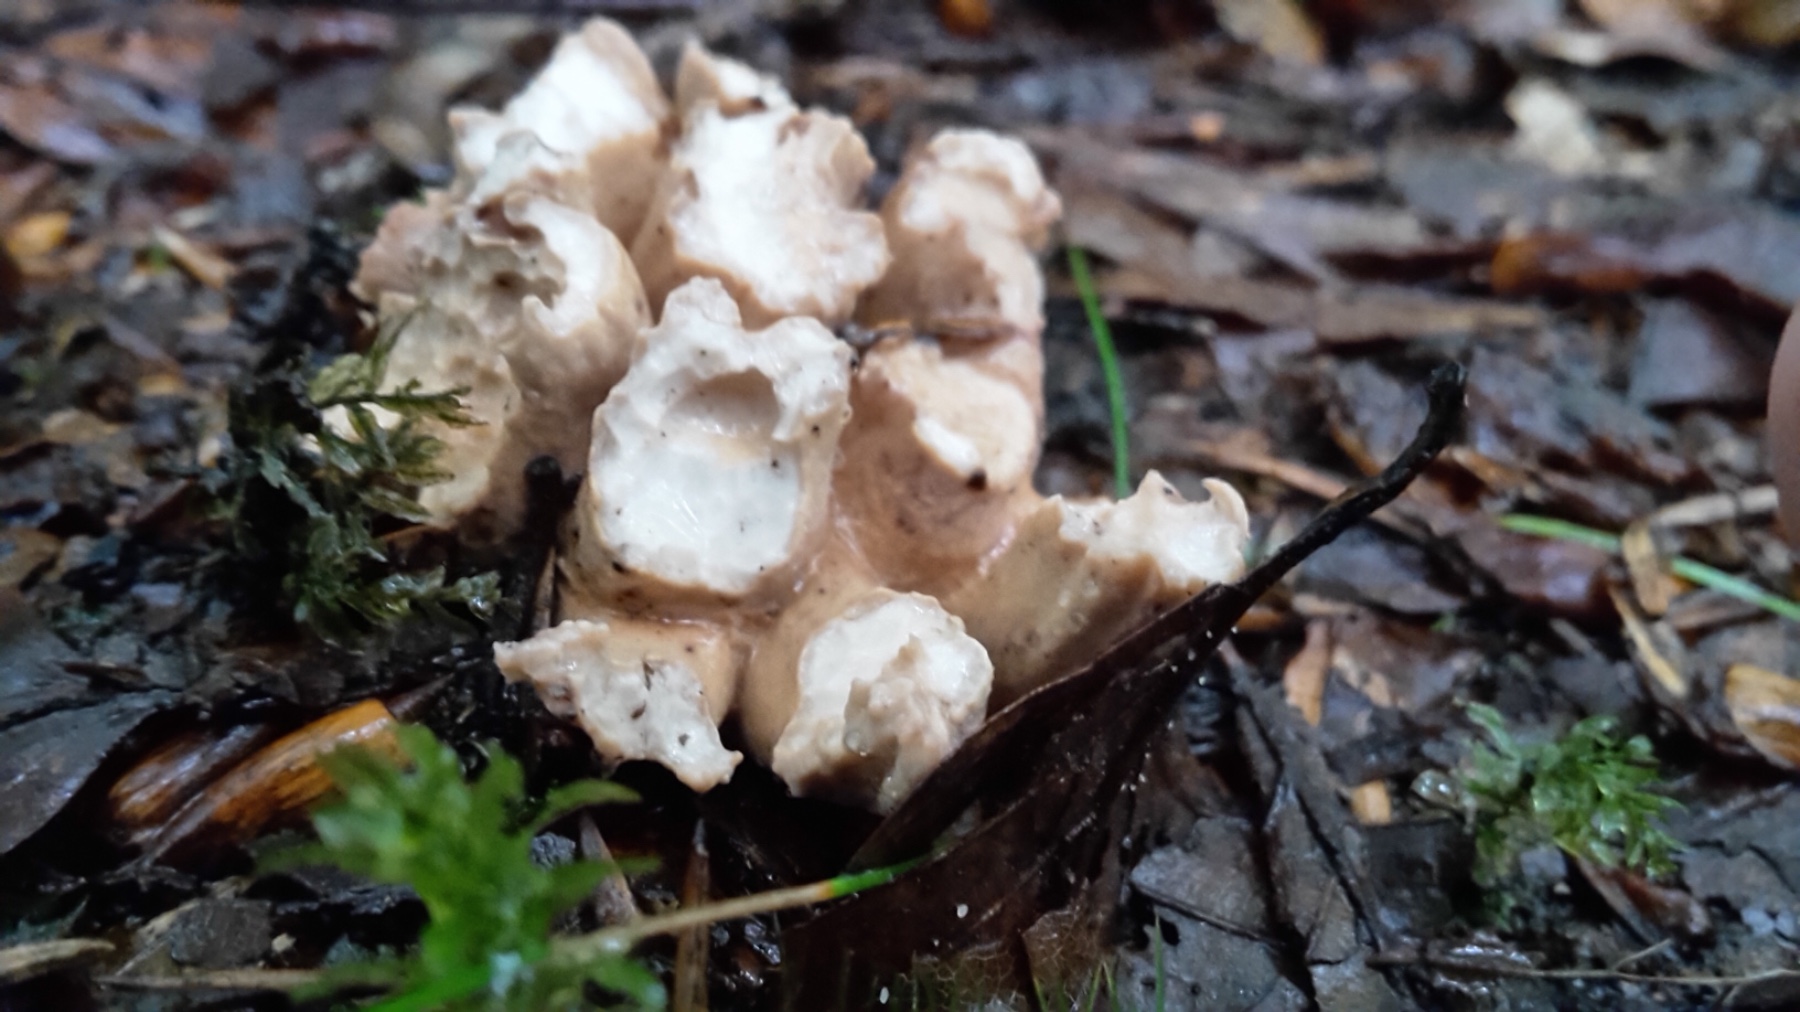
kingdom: Fungi
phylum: Basidiomycota
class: Agaricomycetes
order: Gomphales
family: Gomphaceae
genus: Gomphus
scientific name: Gomphus clavatus
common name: køllekantarel
